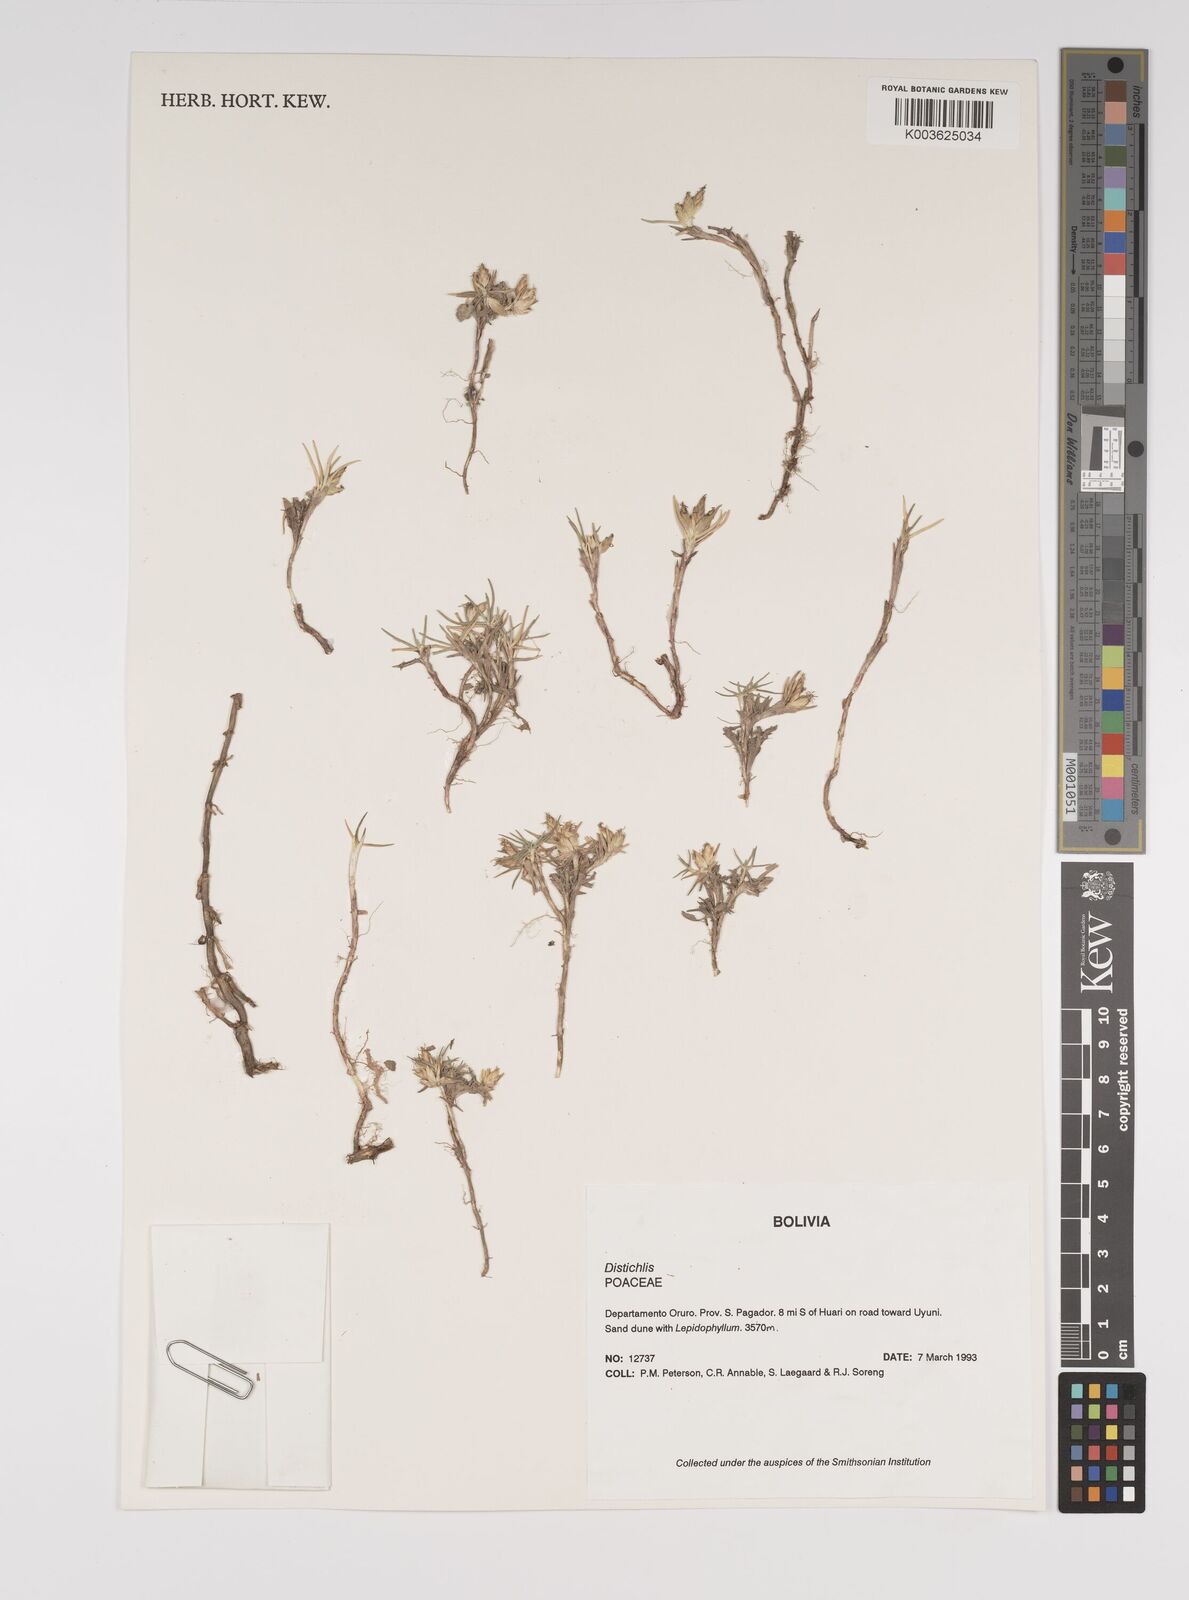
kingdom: Plantae
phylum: Tracheophyta
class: Liliopsida
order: Poales
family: Poaceae
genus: Distichlis
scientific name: Distichlis humilis
